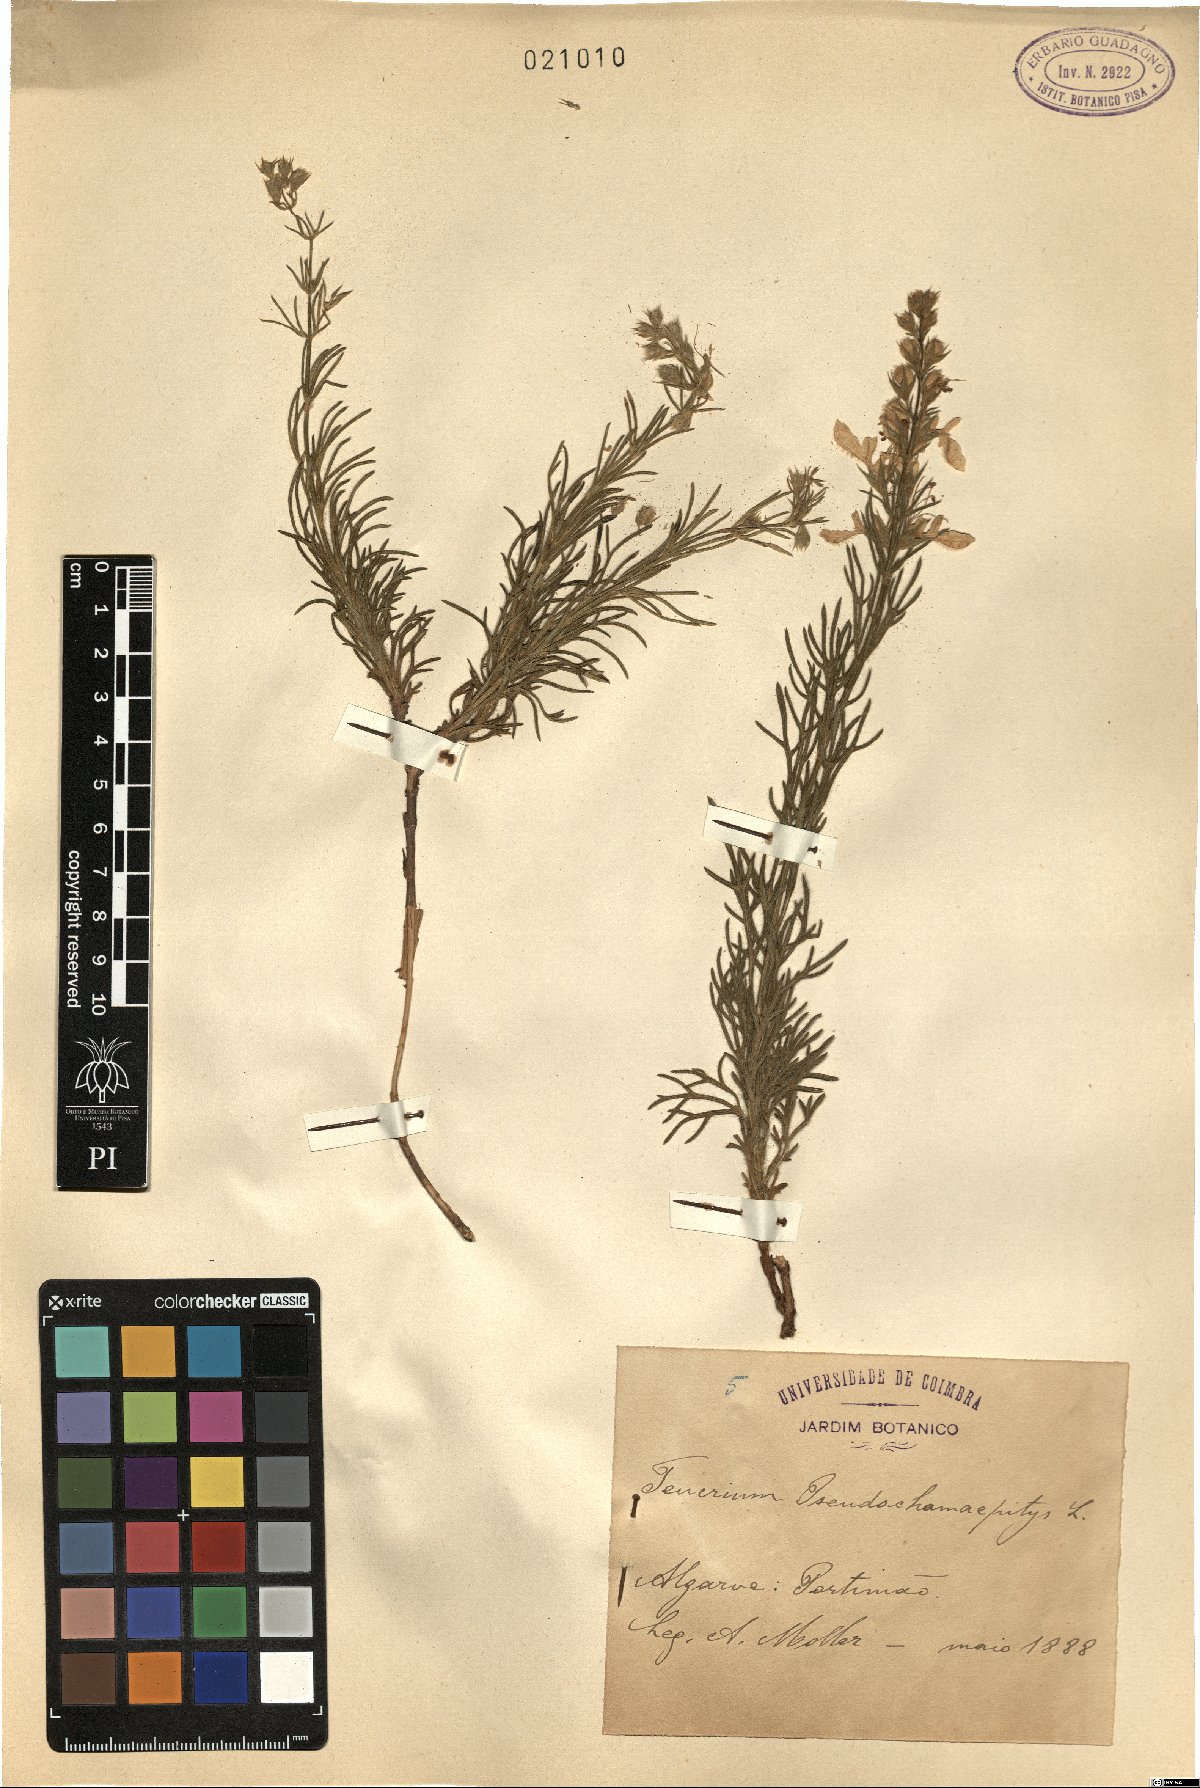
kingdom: Plantae
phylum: Tracheophyta
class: Magnoliopsida
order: Lamiales
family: Lamiaceae
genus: Teucrium
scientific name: Teucrium pseudochamaepitys
